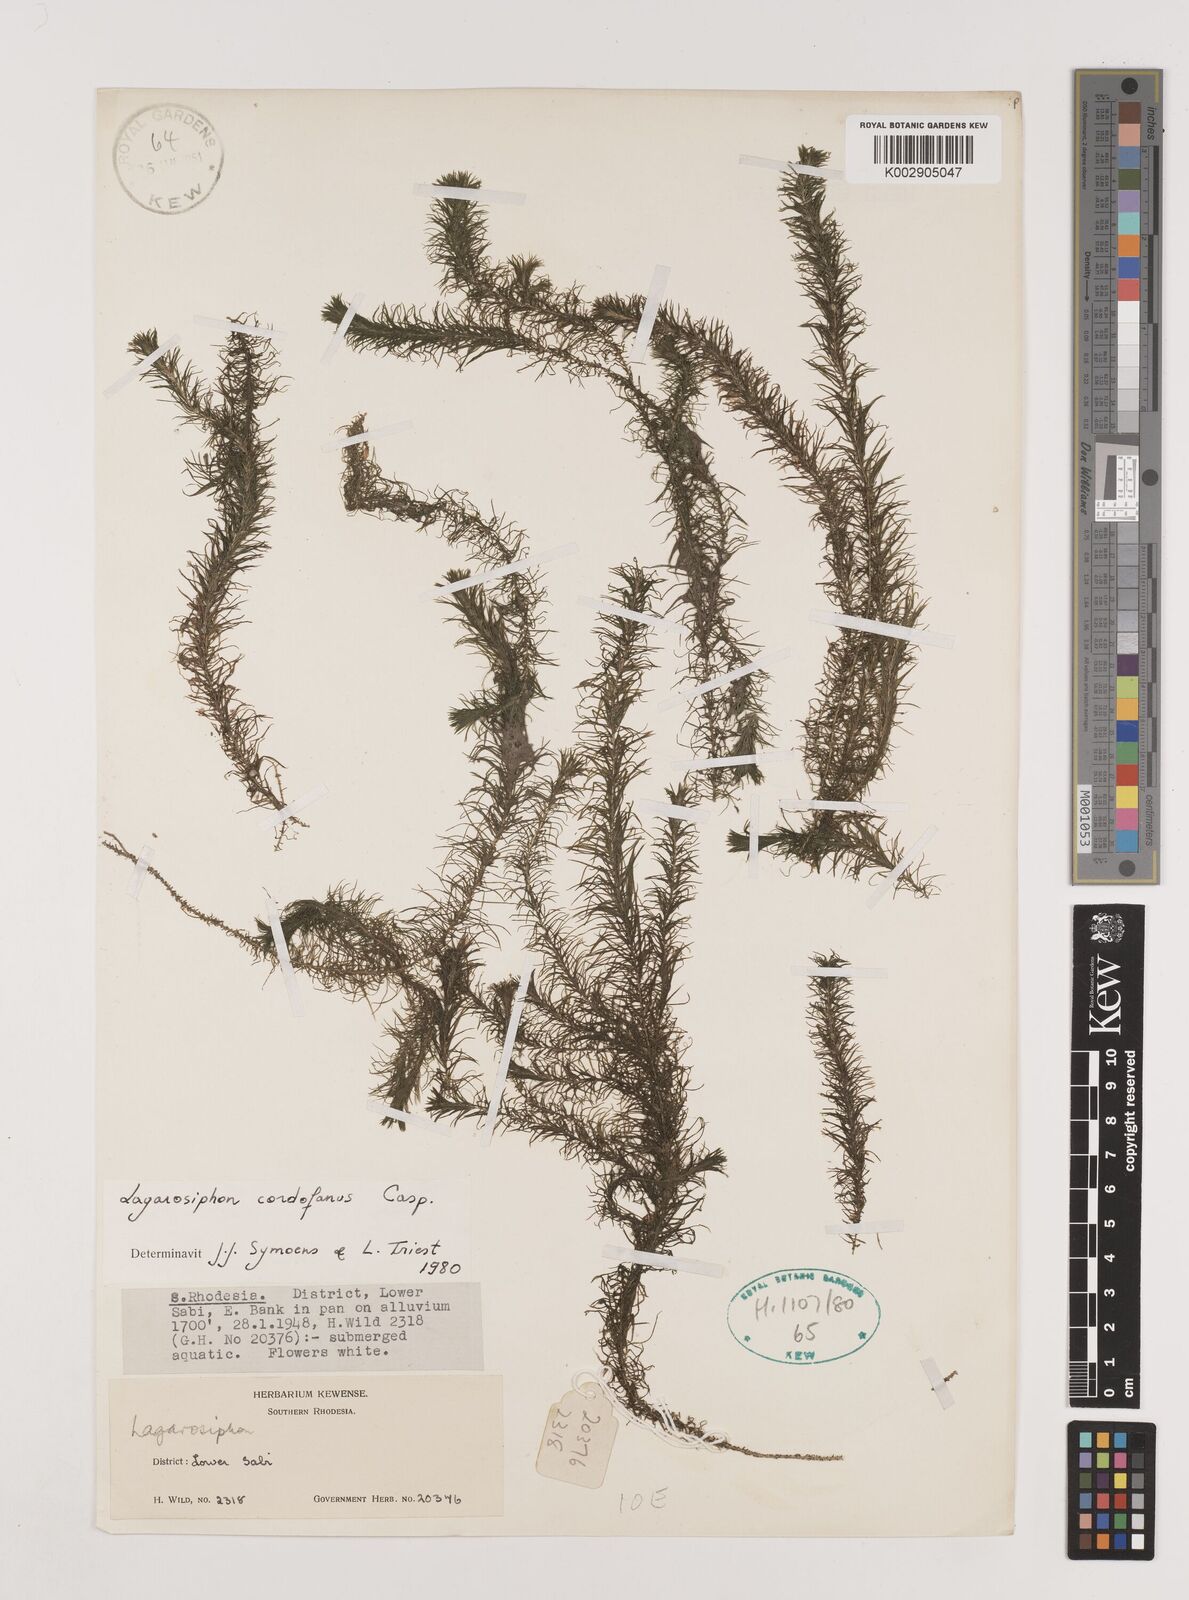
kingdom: Plantae
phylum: Tracheophyta
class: Liliopsida
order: Alismatales
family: Hydrocharitaceae
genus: Lagarosiphon
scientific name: Lagarosiphon cordofanus
